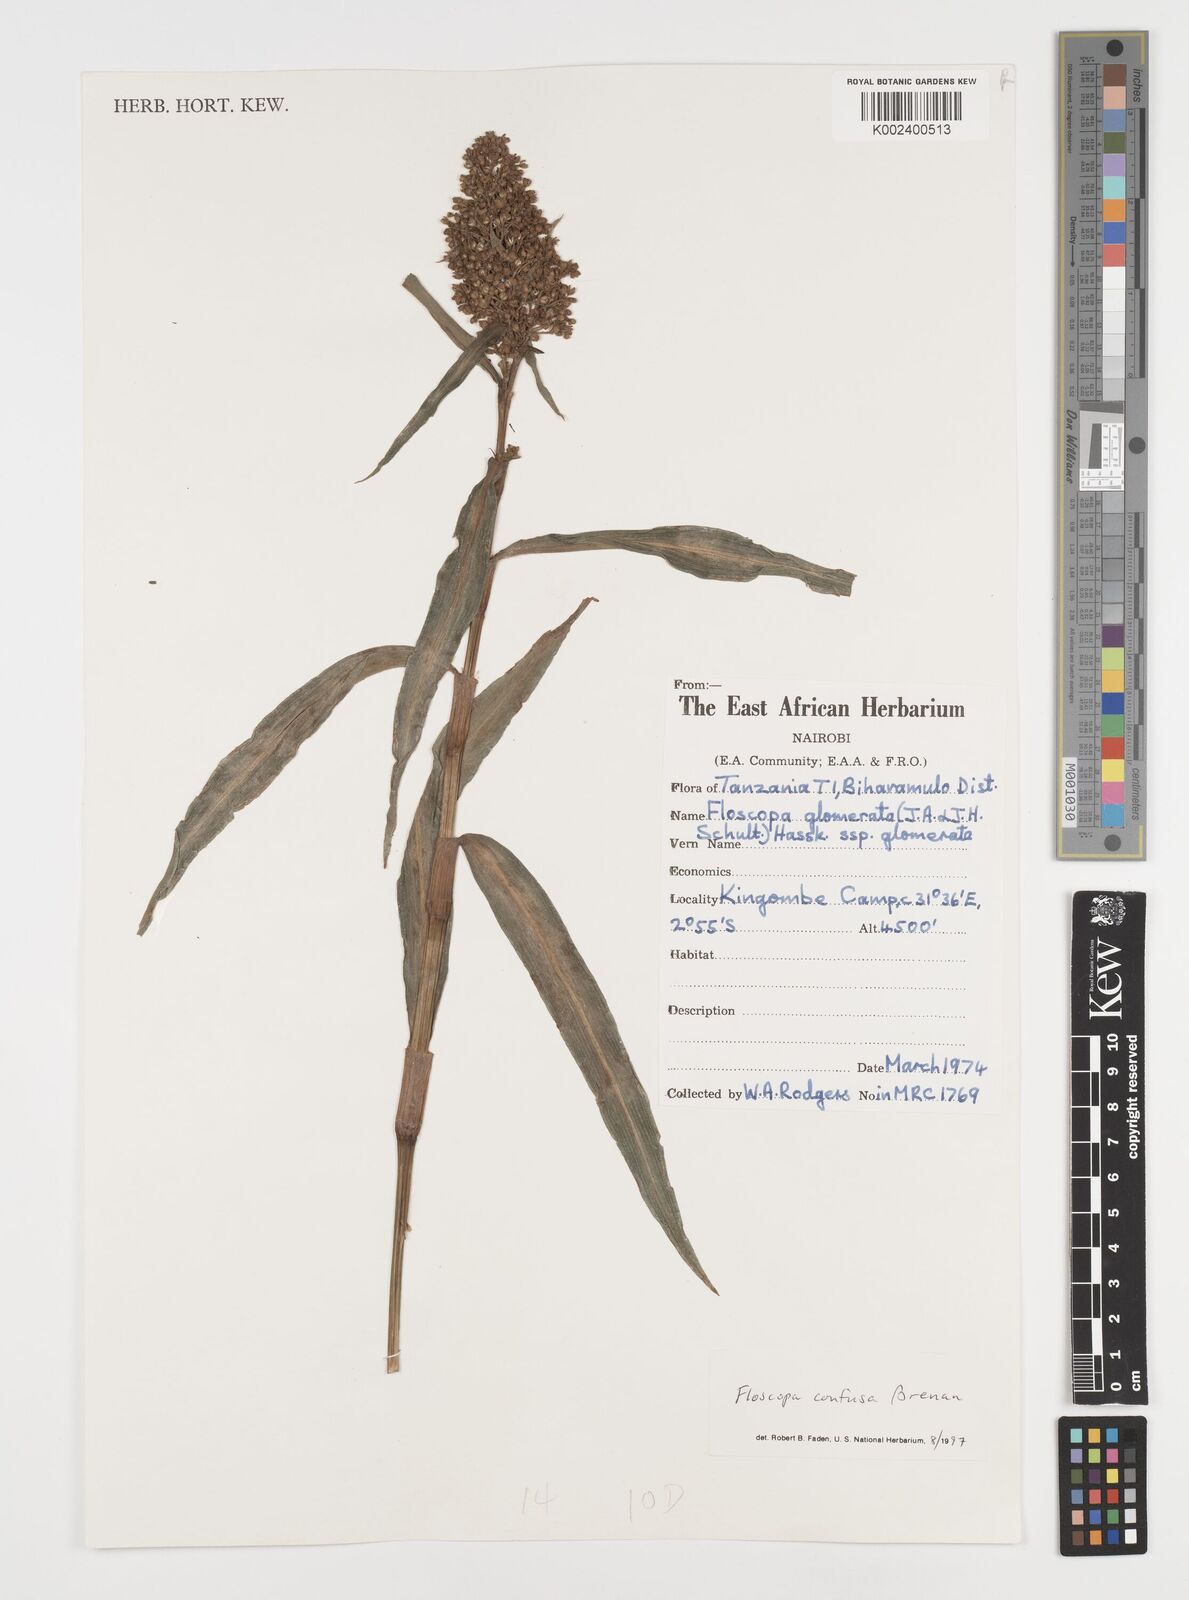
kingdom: Plantae
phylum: Tracheophyta
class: Liliopsida
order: Commelinales
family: Commelinaceae
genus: Floscopa
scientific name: Floscopa confusa
